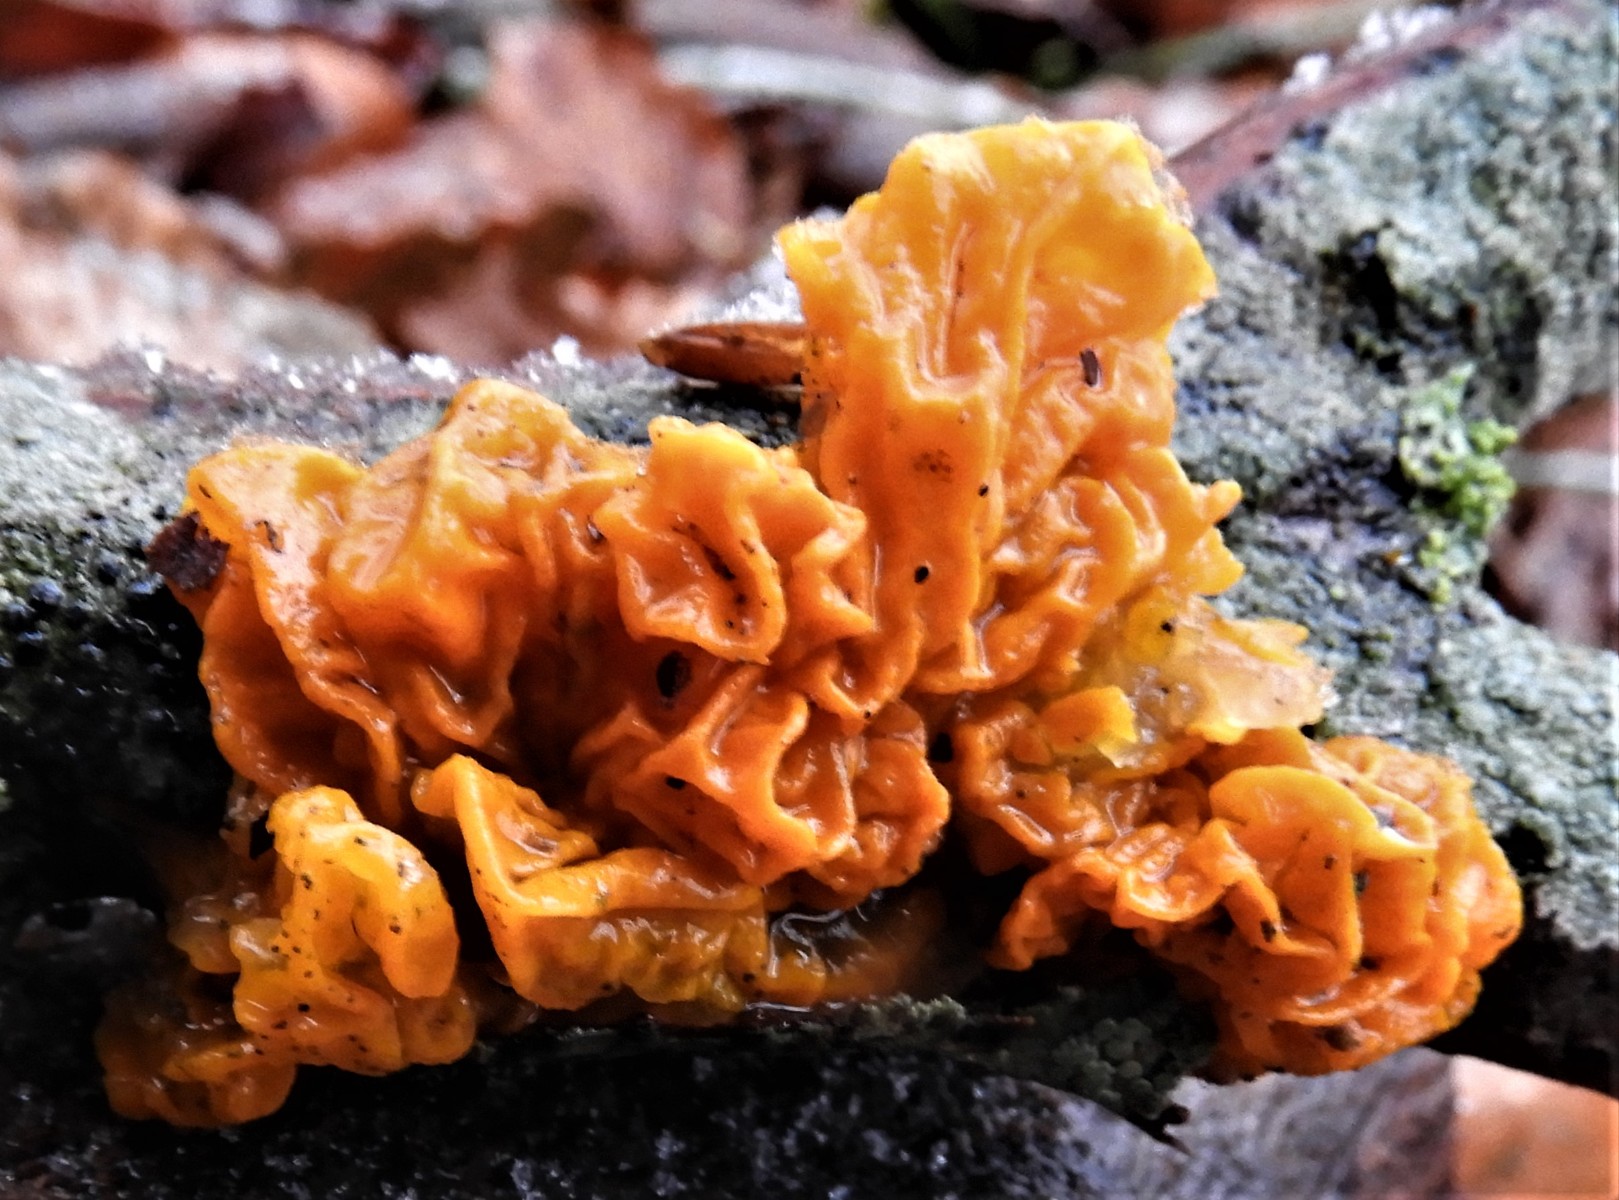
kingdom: Fungi
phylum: Basidiomycota
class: Tremellomycetes
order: Tremellales
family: Tremellaceae
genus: Tremella
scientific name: Tremella mesenterica
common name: gul bævresvamp
